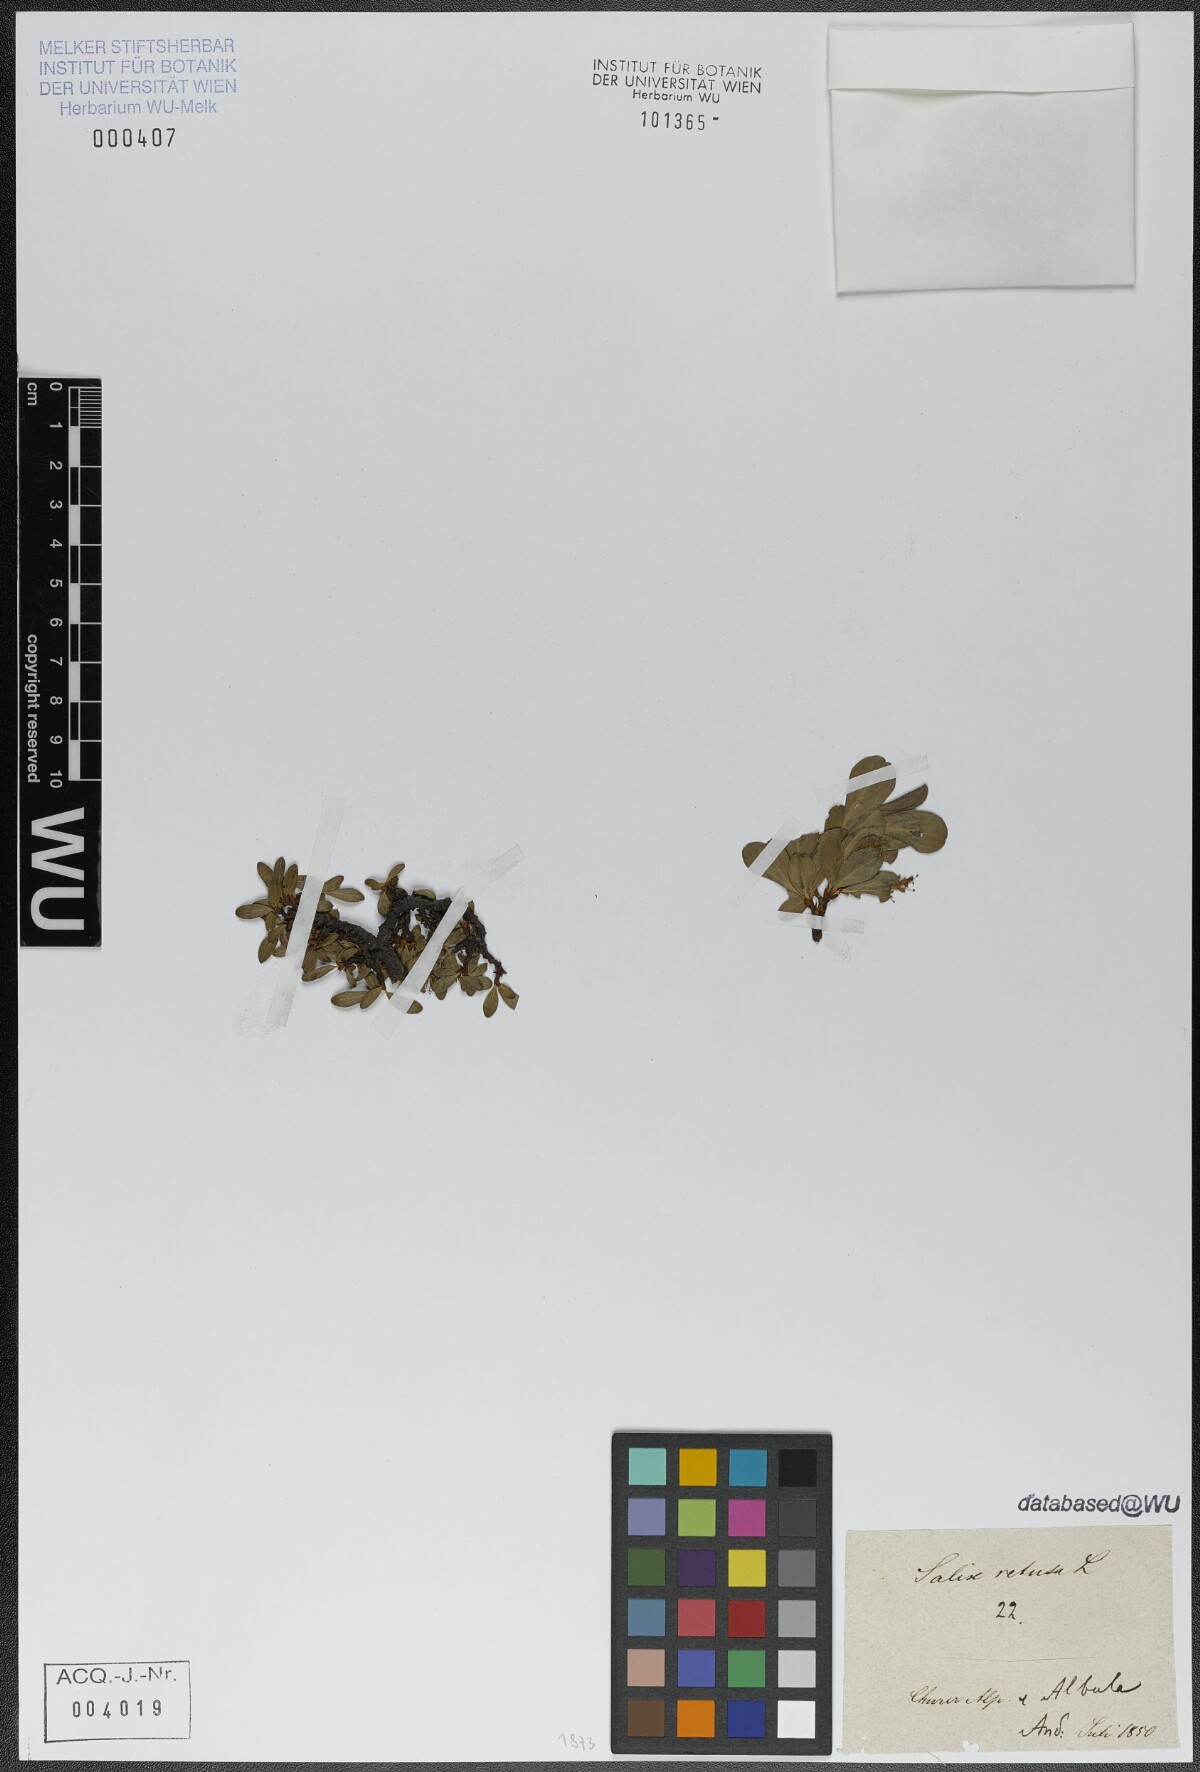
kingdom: Plantae
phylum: Tracheophyta
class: Magnoliopsida
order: Malpighiales
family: Salicaceae
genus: Salix
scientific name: Salix retusa
